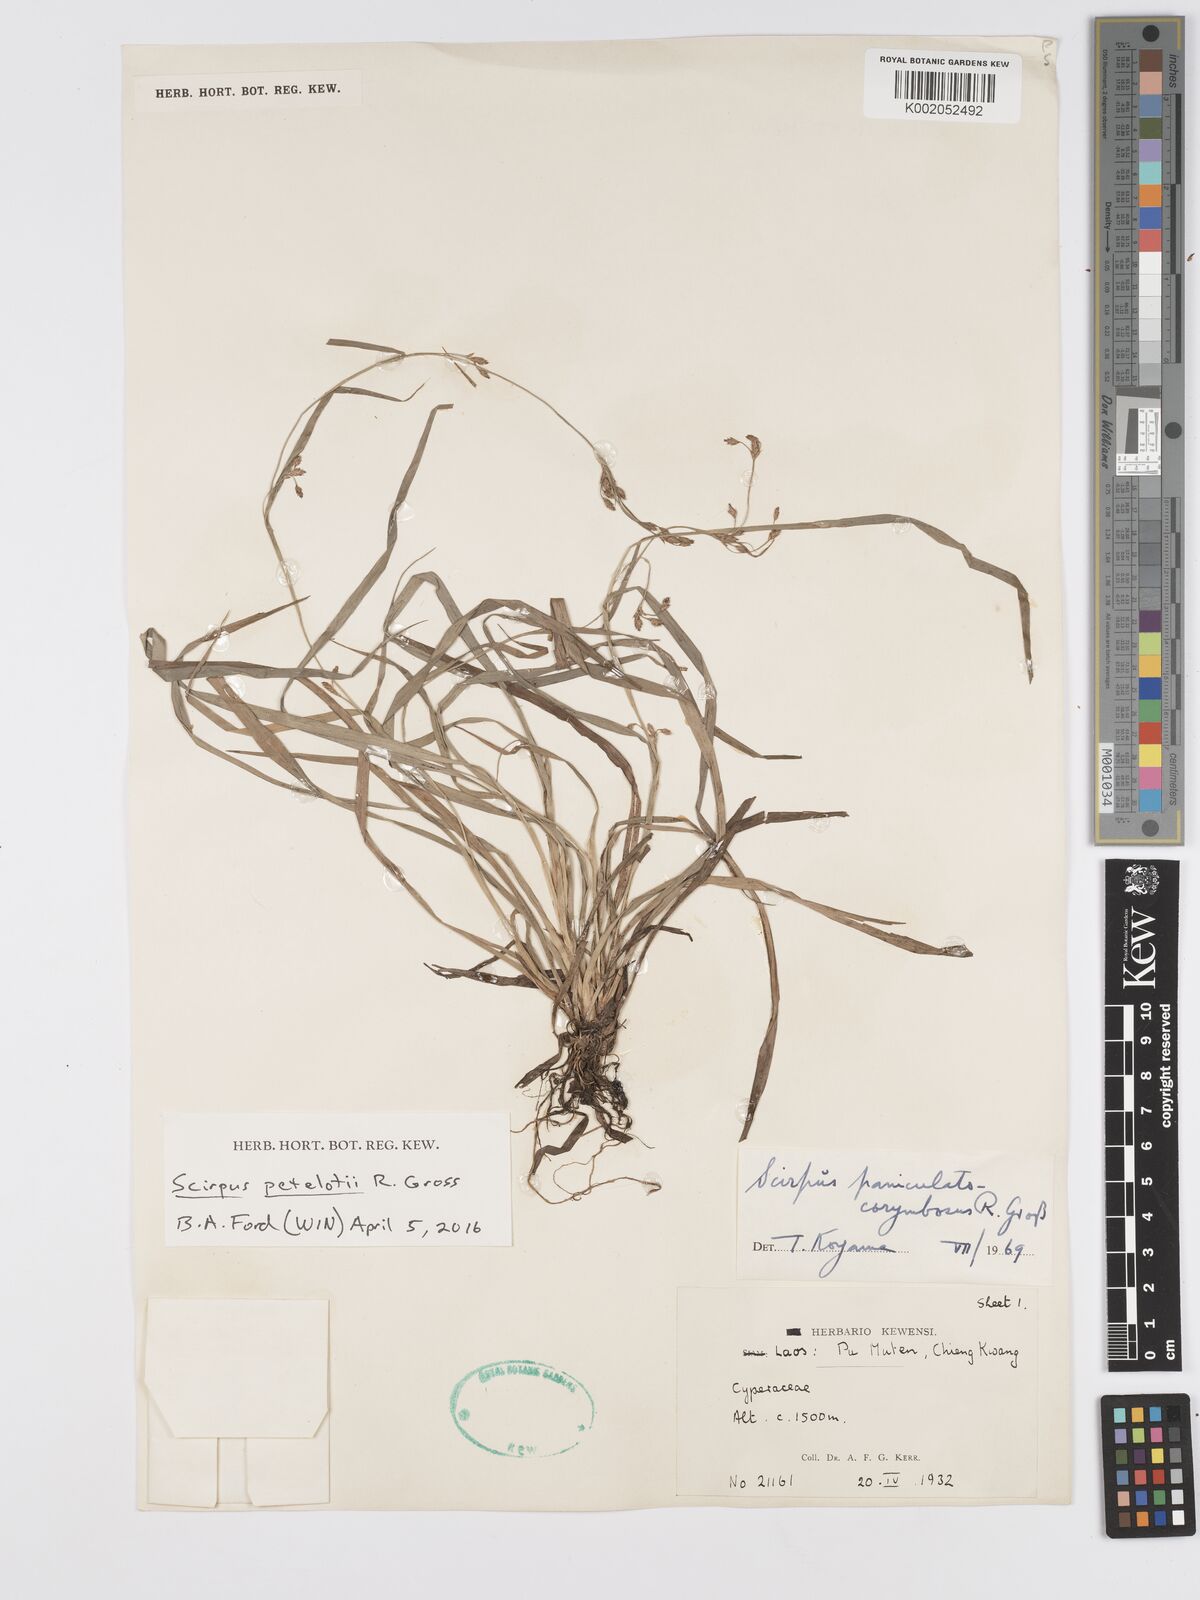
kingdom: Plantae
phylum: Tracheophyta
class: Liliopsida
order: Poales
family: Cyperaceae
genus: Scirpus
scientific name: Scirpus petelotii
